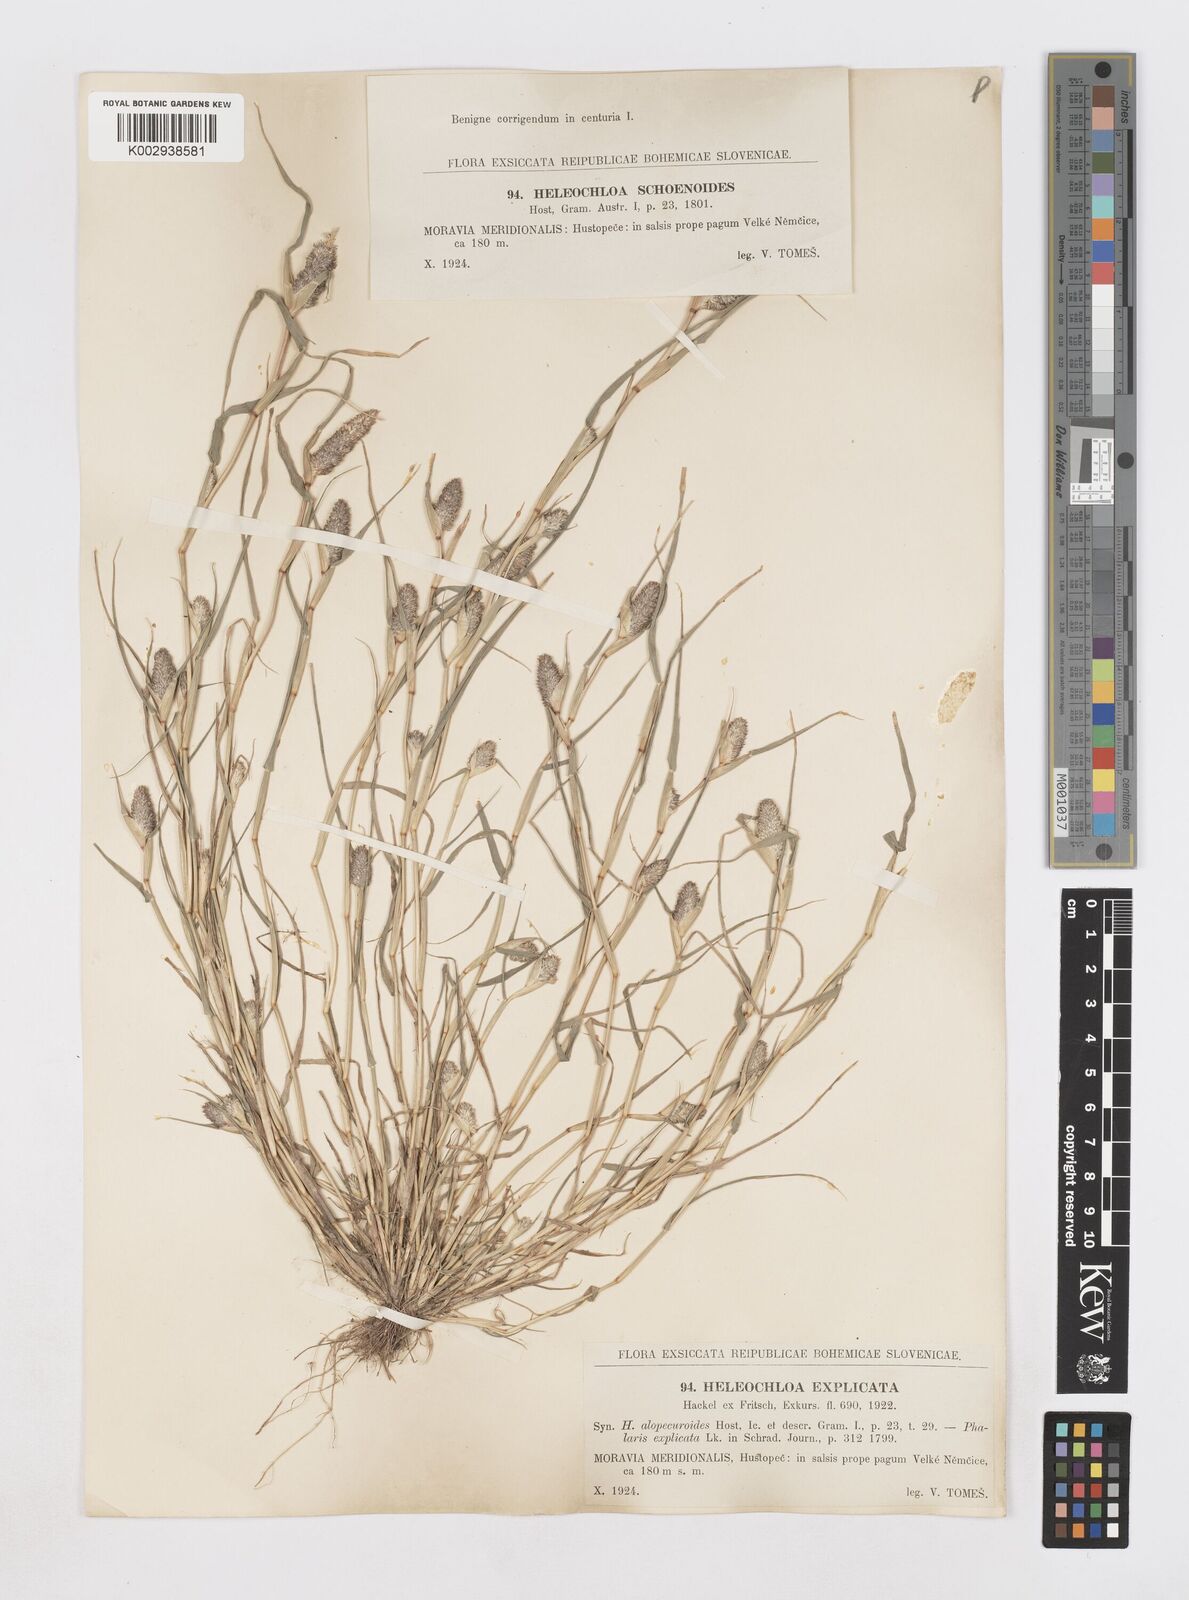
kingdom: Animalia
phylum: Arthropoda
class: Insecta
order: Coleoptera
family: Tenebrionidae
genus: Crypsis
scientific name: Crypsis
